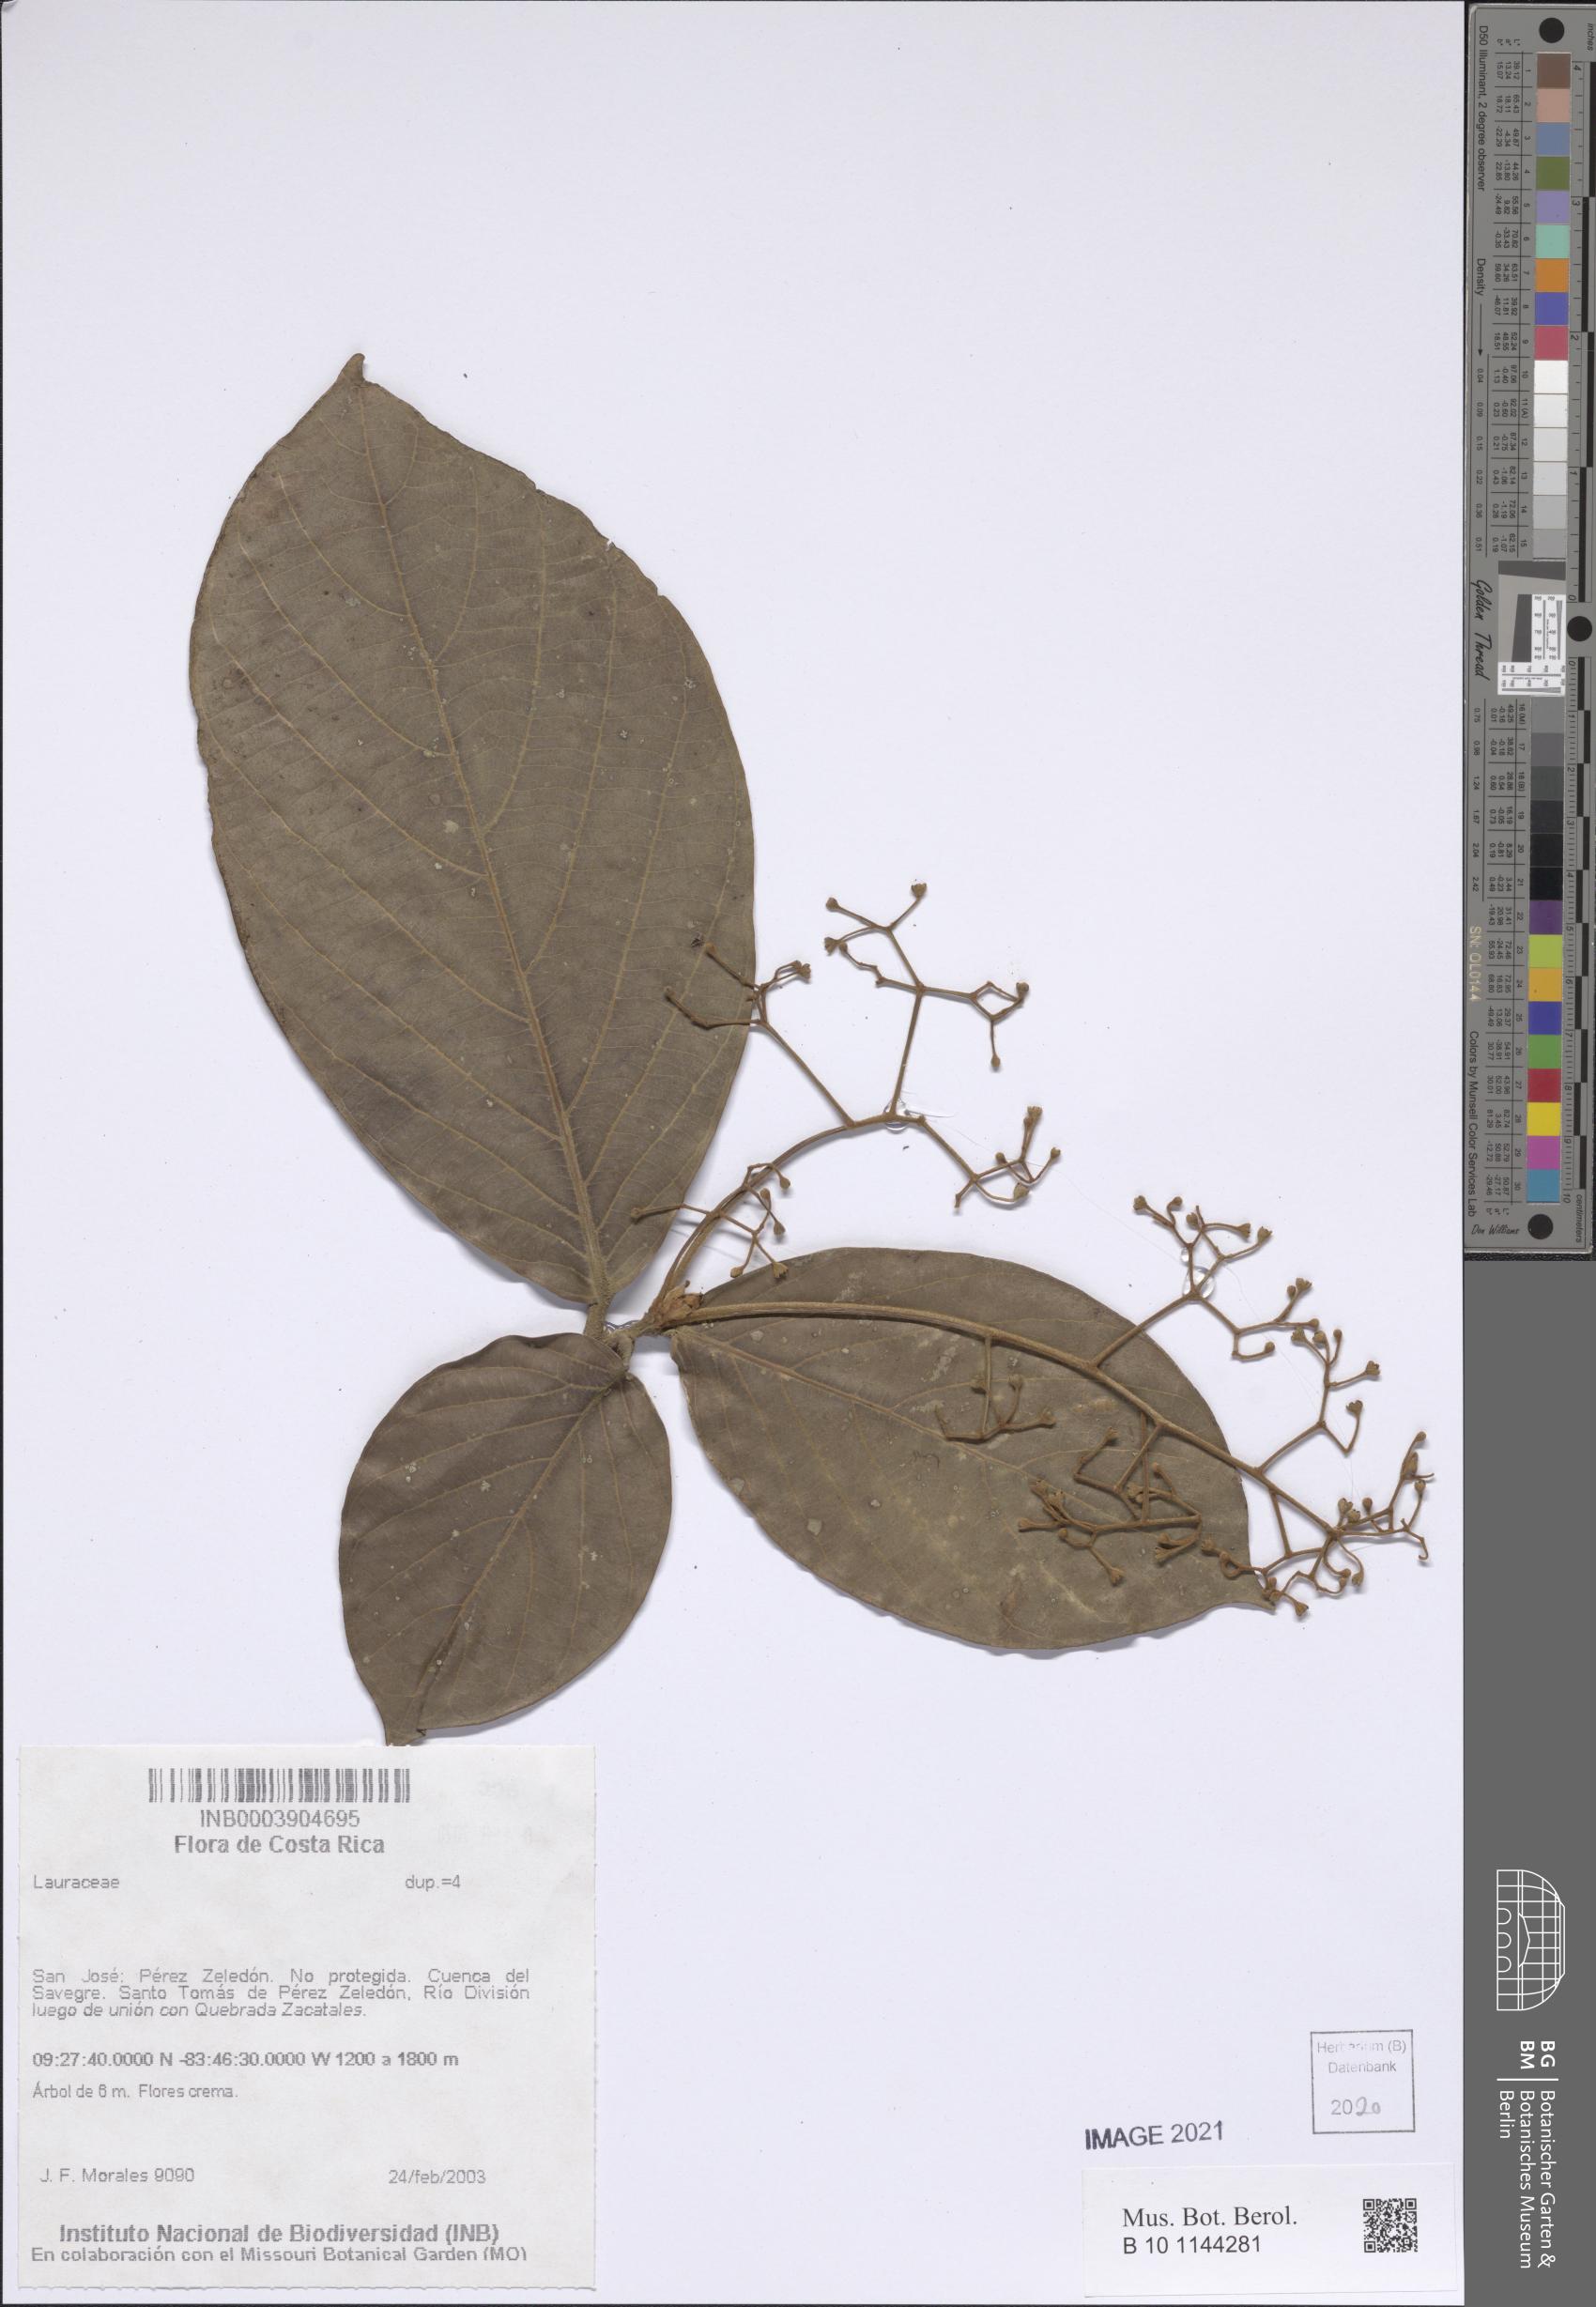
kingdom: Plantae
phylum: Tracheophyta
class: Magnoliopsida
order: Laurales
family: Lauraceae
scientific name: Lauraceae
